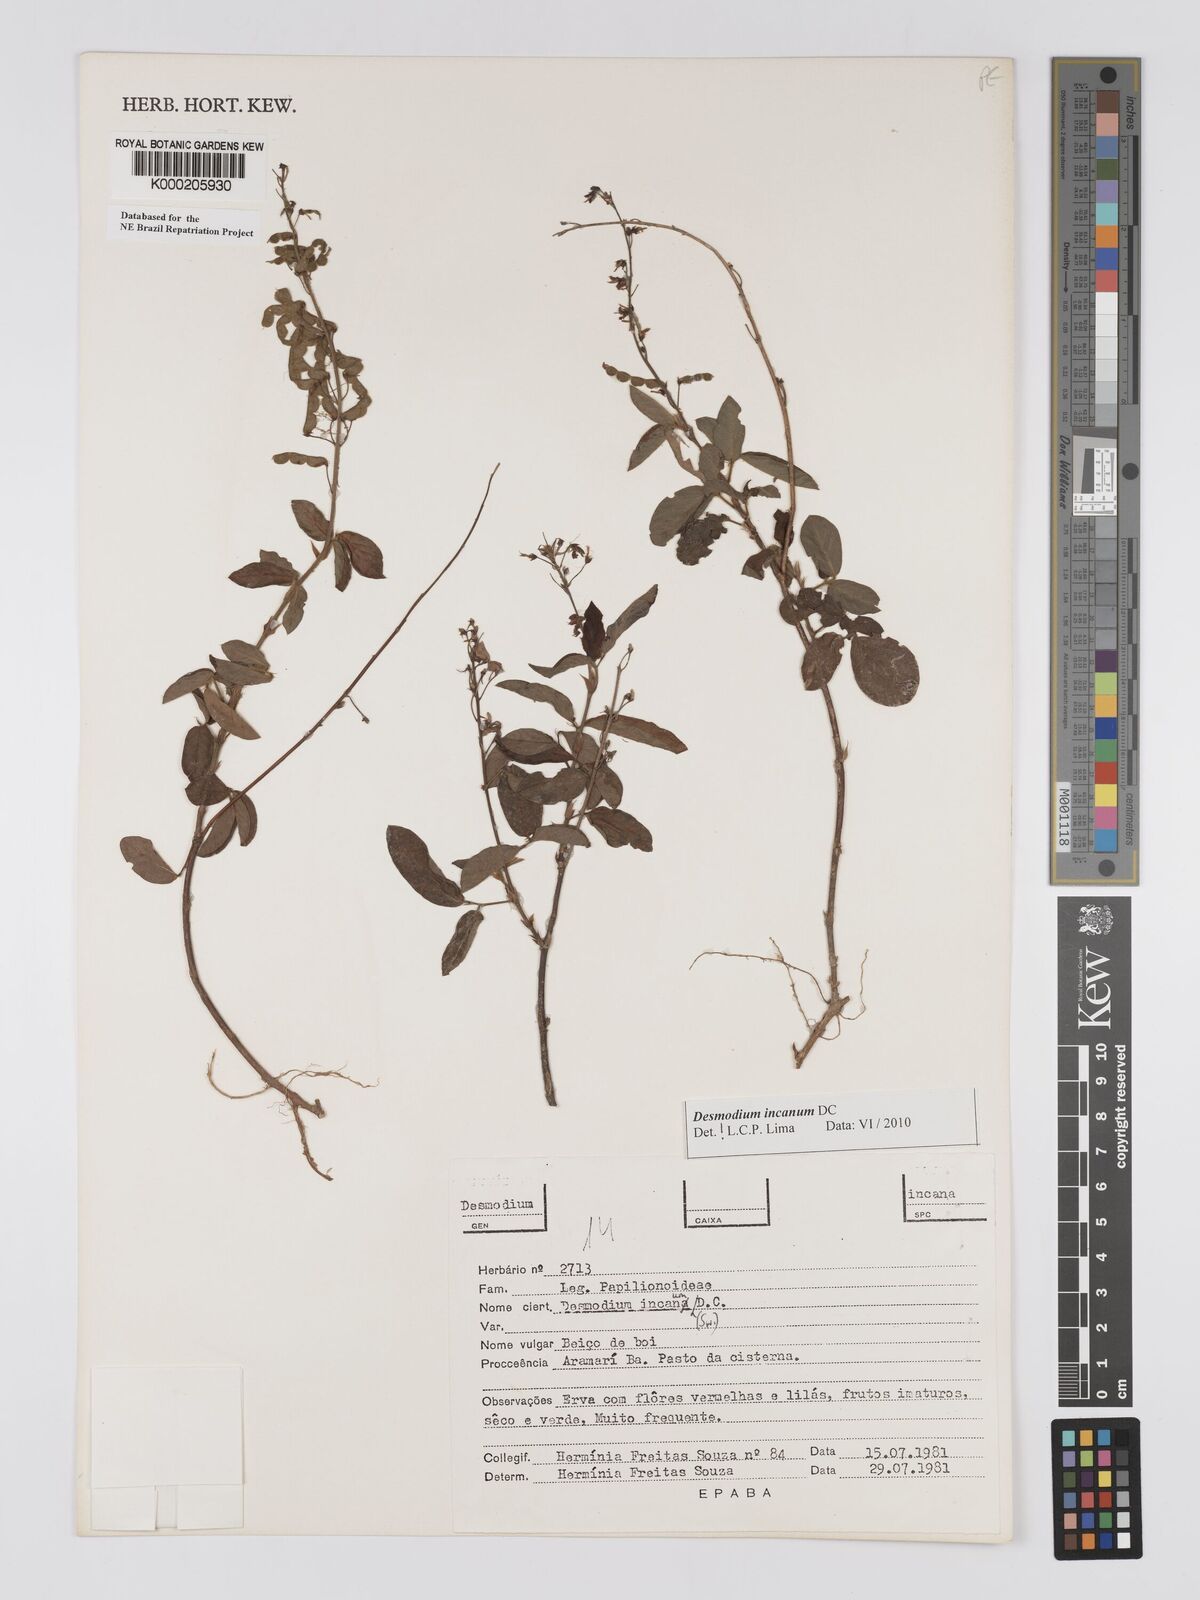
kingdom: Plantae
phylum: Tracheophyta
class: Magnoliopsida
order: Fabales
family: Fabaceae
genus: Desmodium
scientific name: Desmodium incanum
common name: Tickclover
